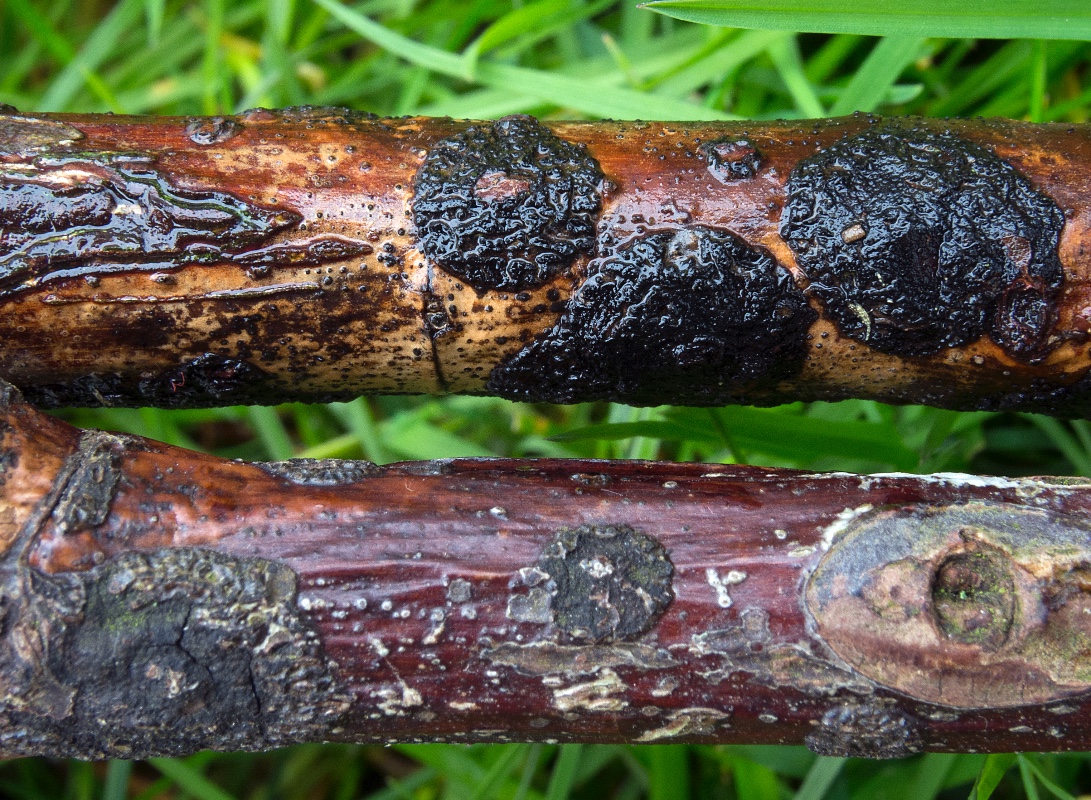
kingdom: Fungi
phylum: Ascomycota
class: Dothideomycetes
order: Botryosphaeriales
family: Botryosphaeriaceae
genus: Botryosphaeria
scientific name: Botryosphaeria dothidea
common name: Asteromyia gall midge fungus
